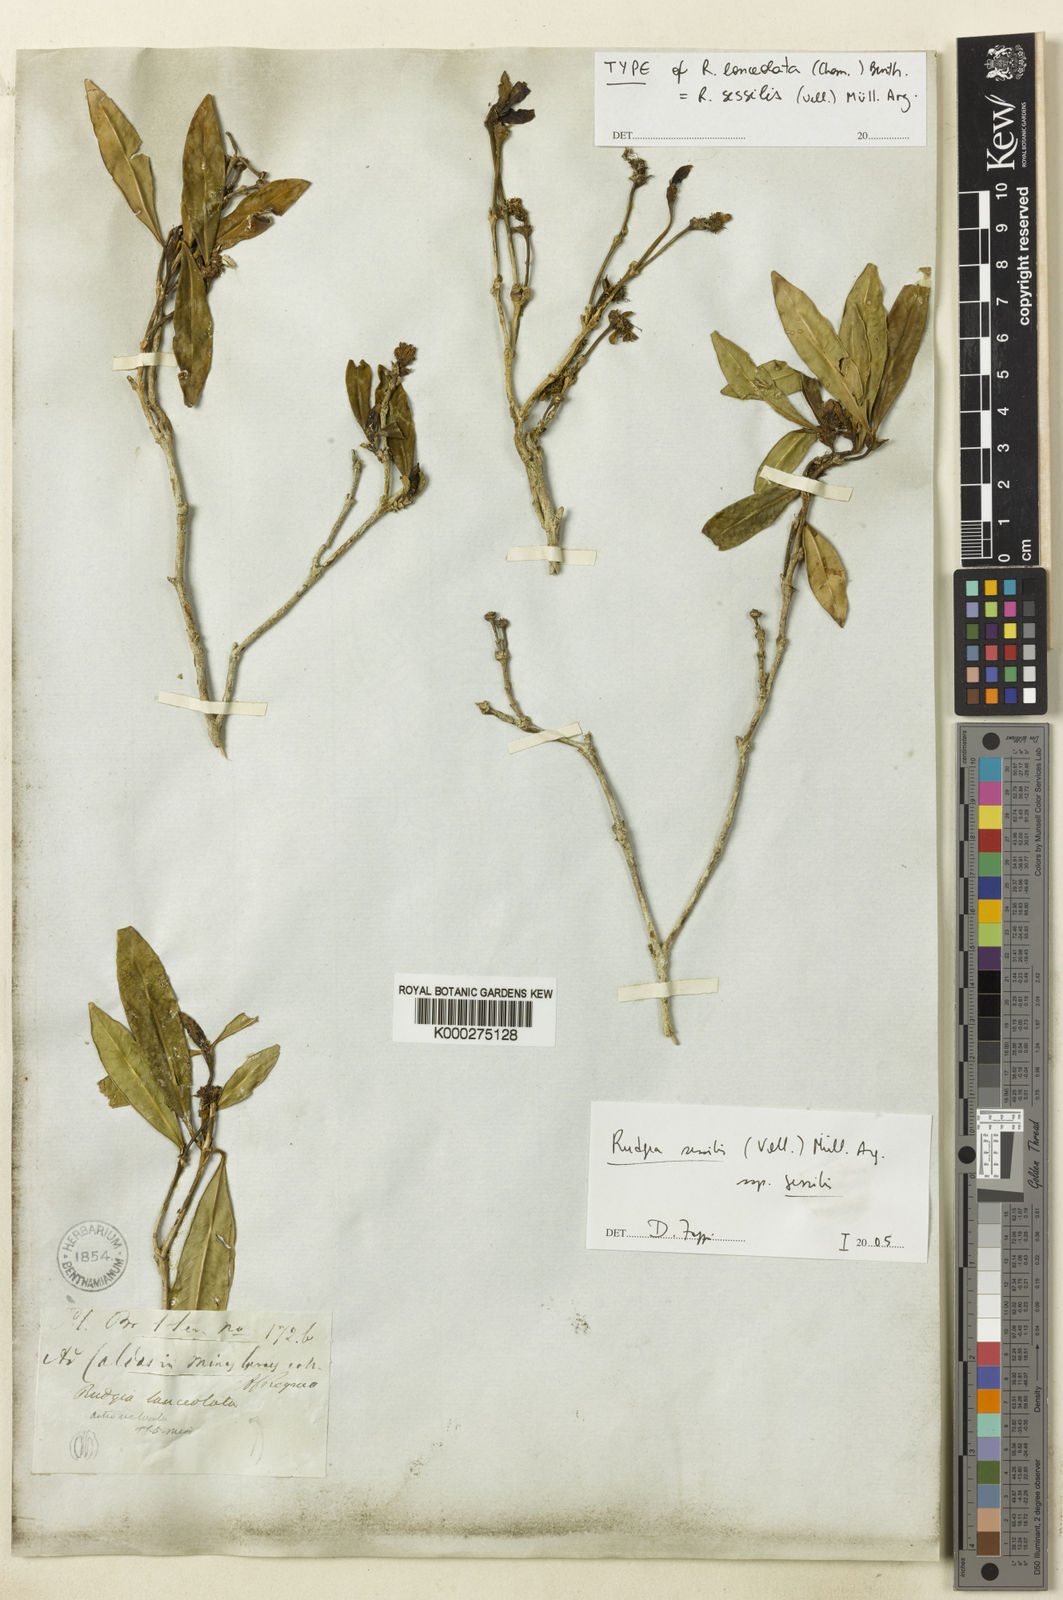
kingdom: Plantae
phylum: Tracheophyta
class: Magnoliopsida
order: Gentianales
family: Rubiaceae
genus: Rudgea
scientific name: Rudgea
